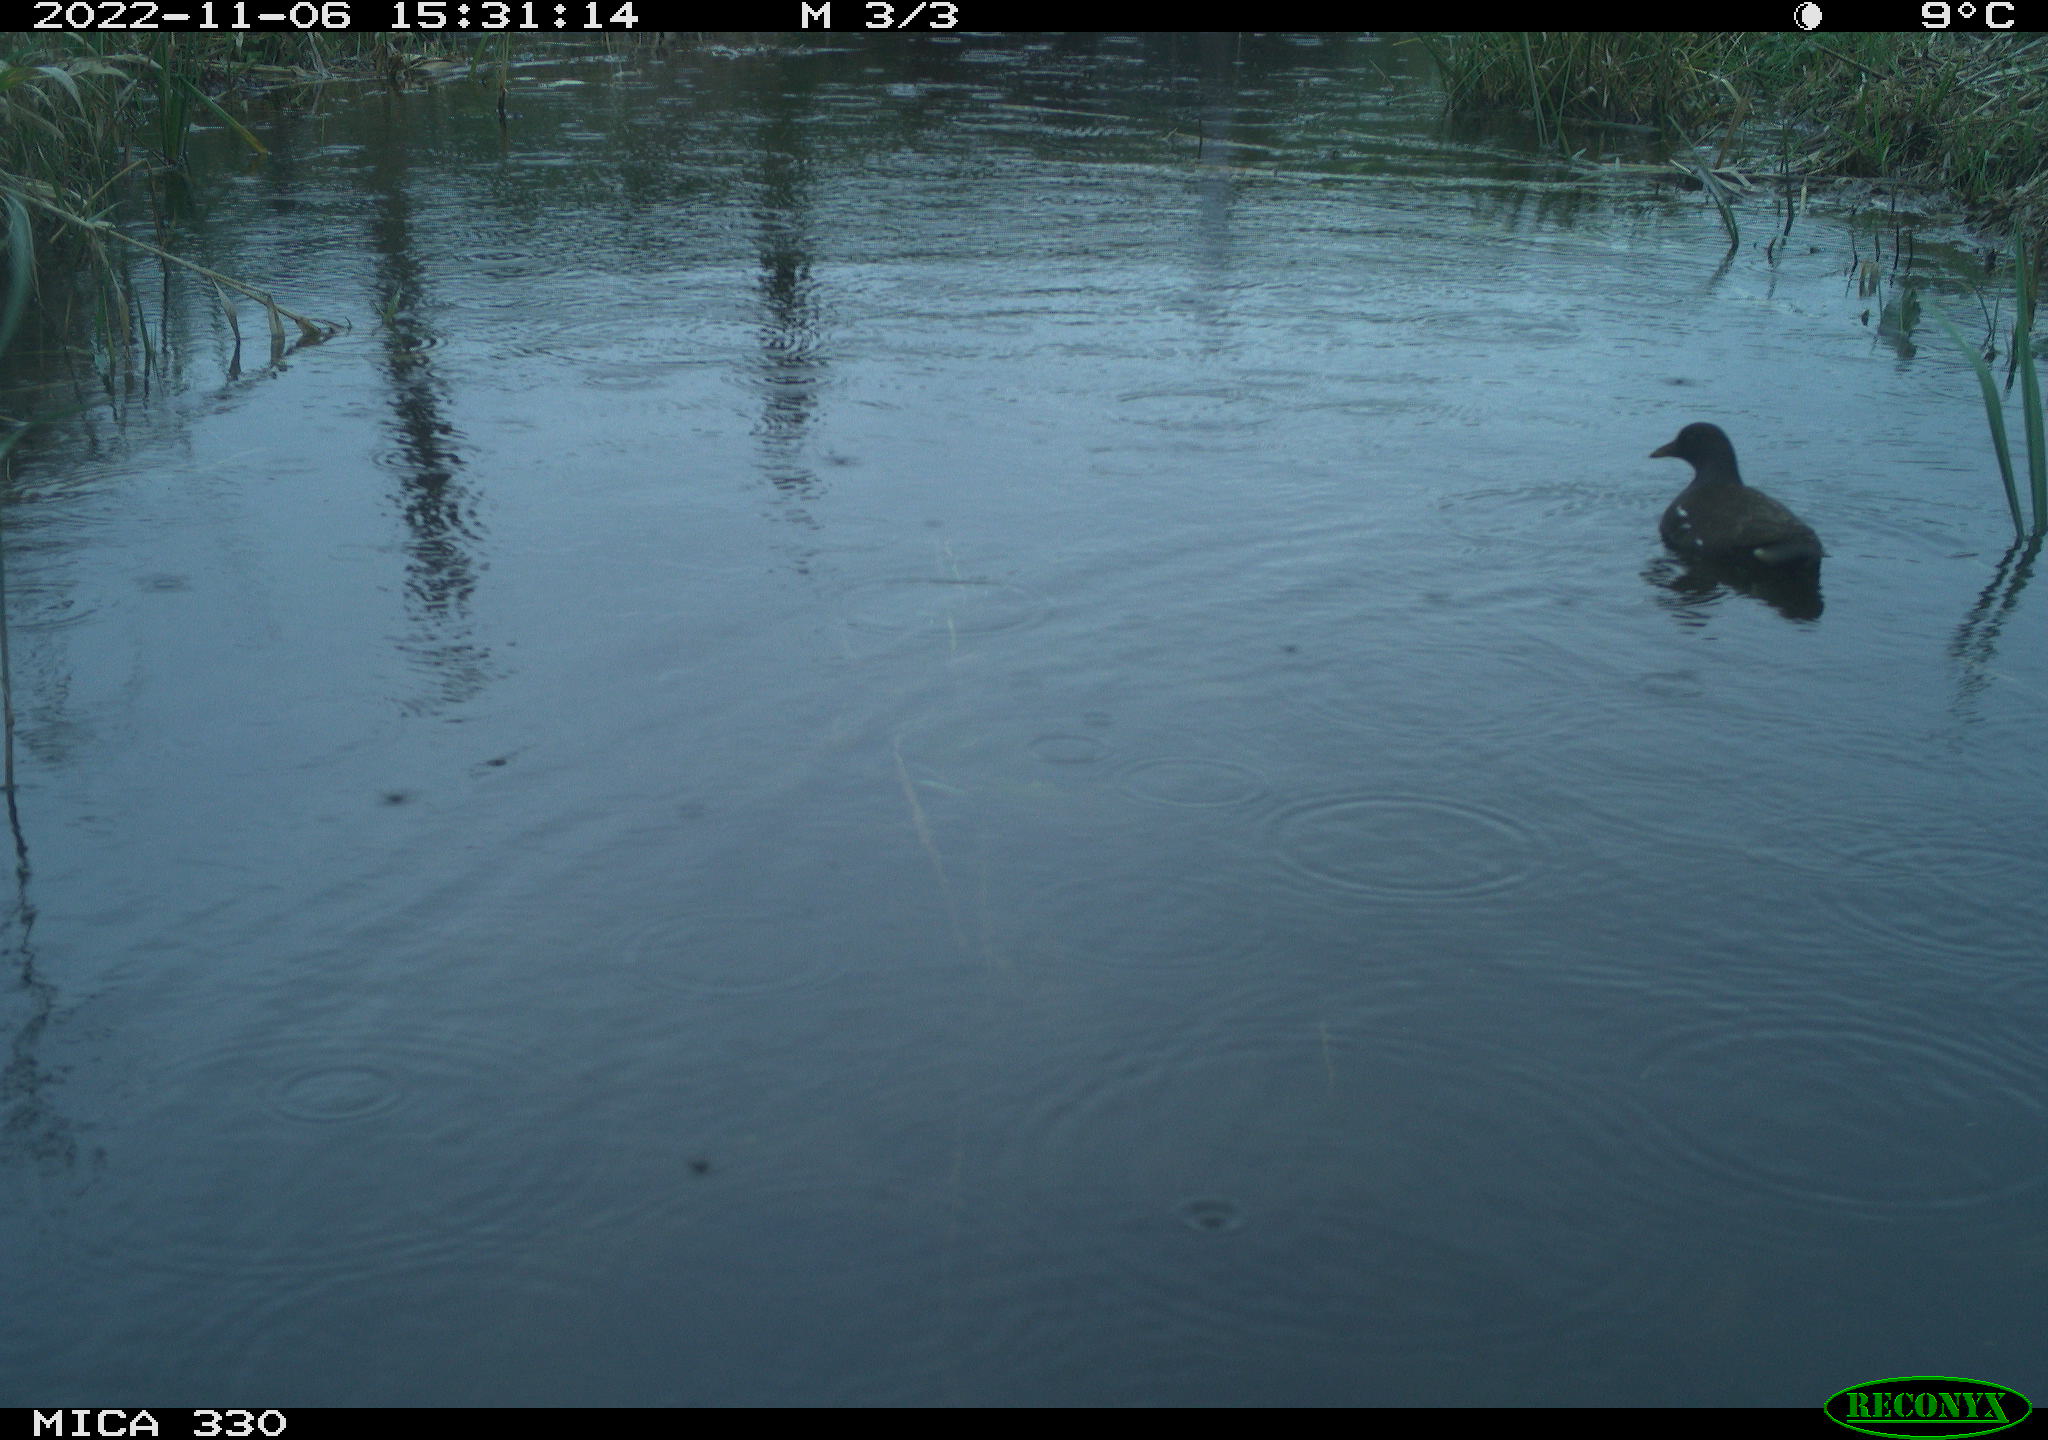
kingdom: Animalia
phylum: Chordata
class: Aves
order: Gruiformes
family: Rallidae
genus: Gallinula
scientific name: Gallinula chloropus
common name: Common moorhen
